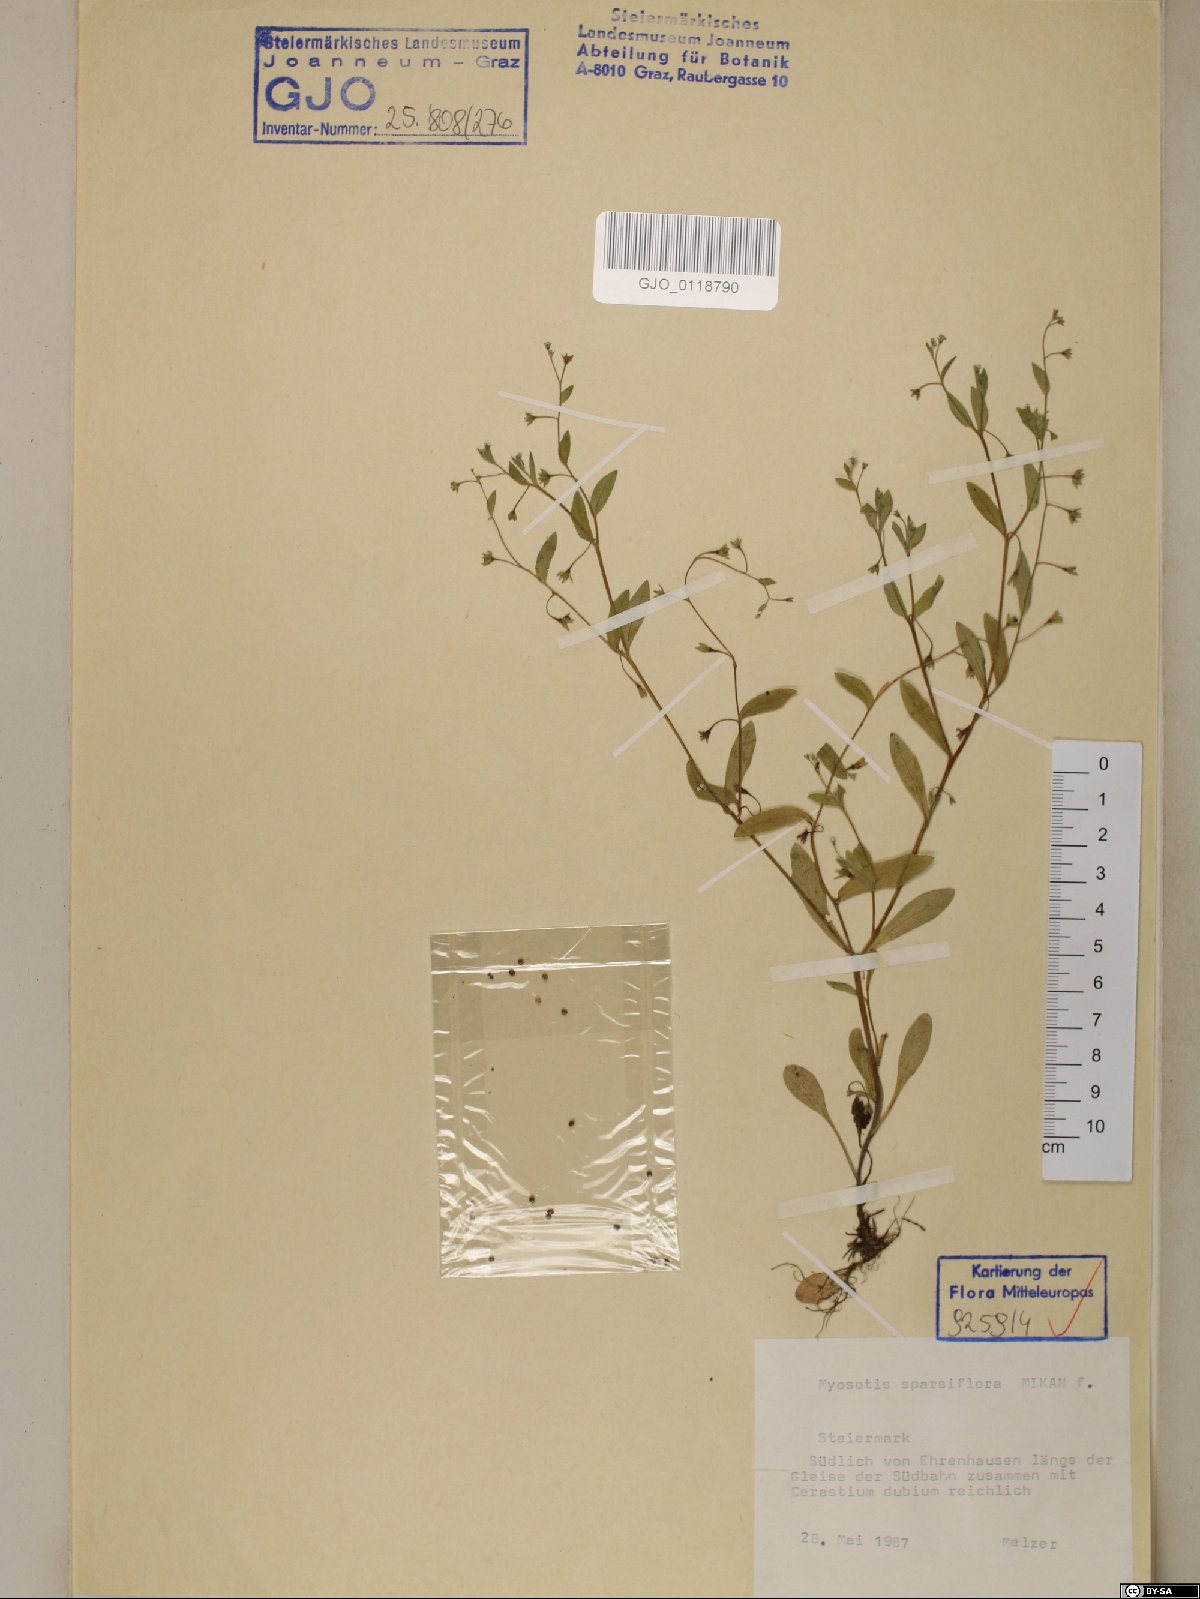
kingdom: Plantae
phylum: Tracheophyta
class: Magnoliopsida
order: Boraginales
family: Boraginaceae
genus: Myosotis
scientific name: Myosotis sparsiflora
